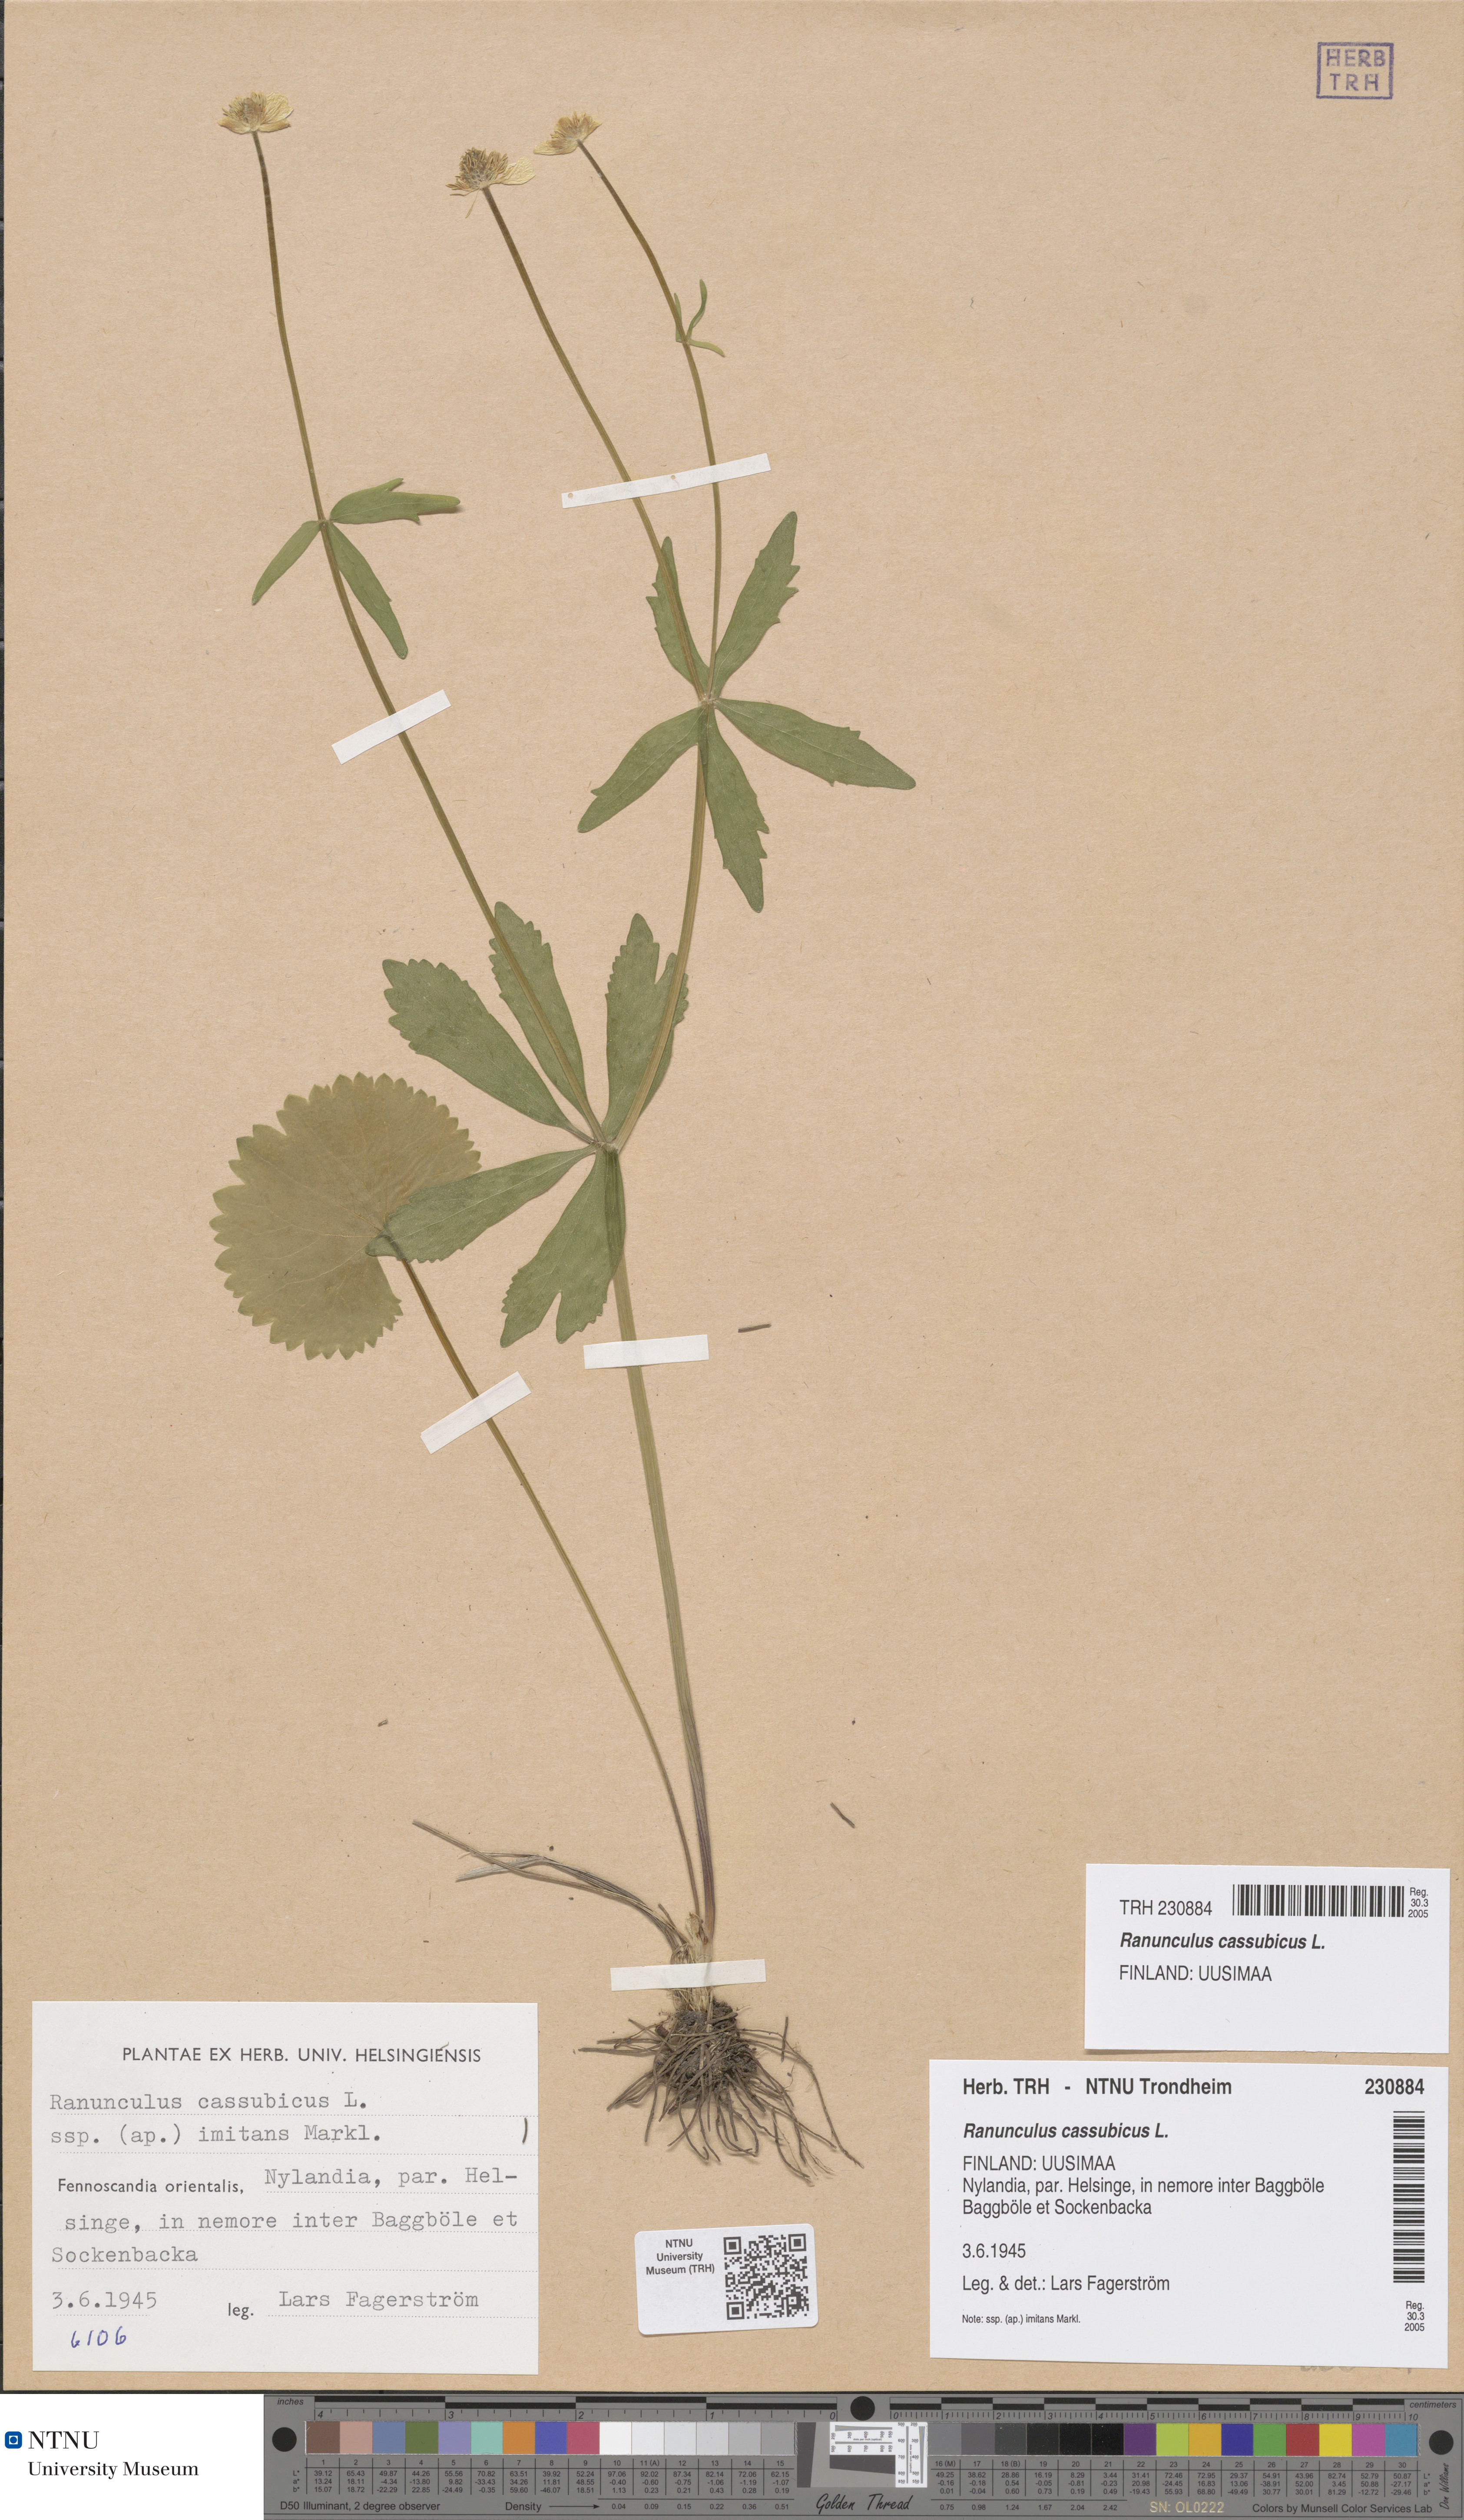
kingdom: Plantae
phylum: Tracheophyta
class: Magnoliopsida
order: Ranunculales
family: Ranunculaceae
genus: Ranunculus
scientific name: Ranunculus cassubicus
